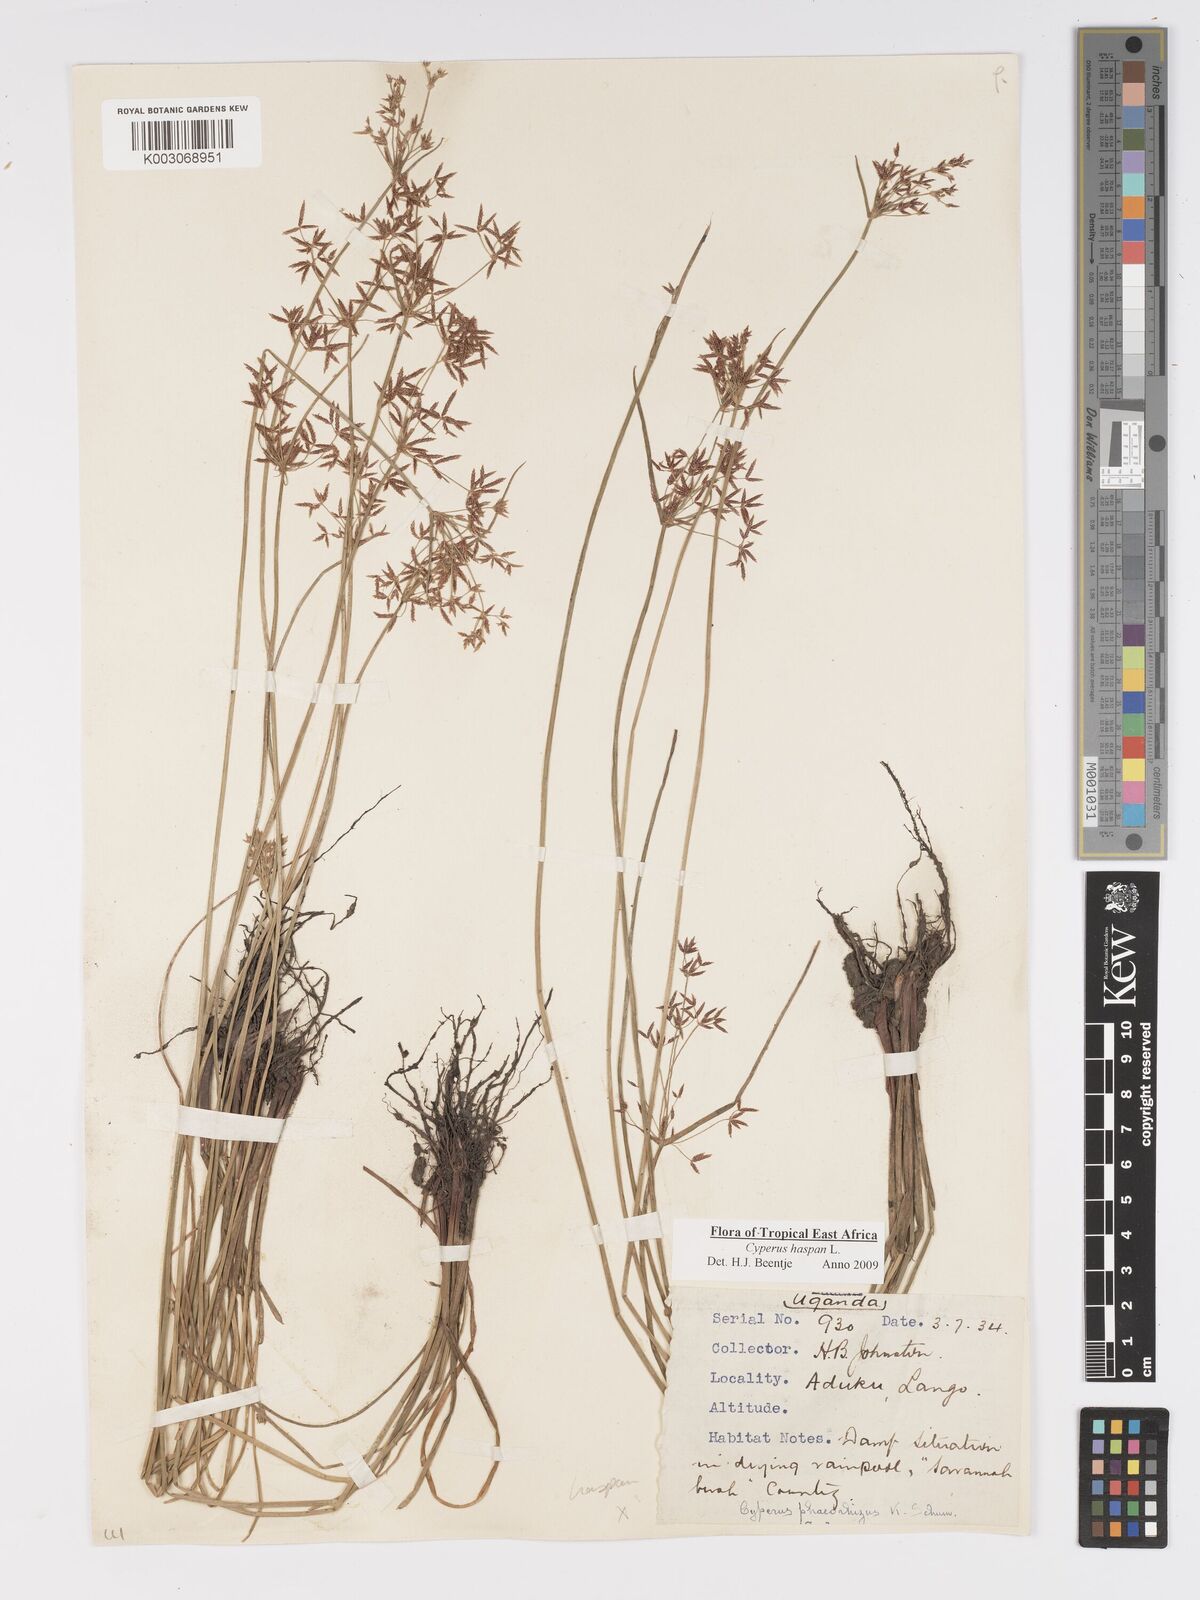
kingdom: Plantae
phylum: Tracheophyta
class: Liliopsida
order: Poales
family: Cyperaceae
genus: Cyperus
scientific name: Cyperus haspan
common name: Haspan flatsedge
